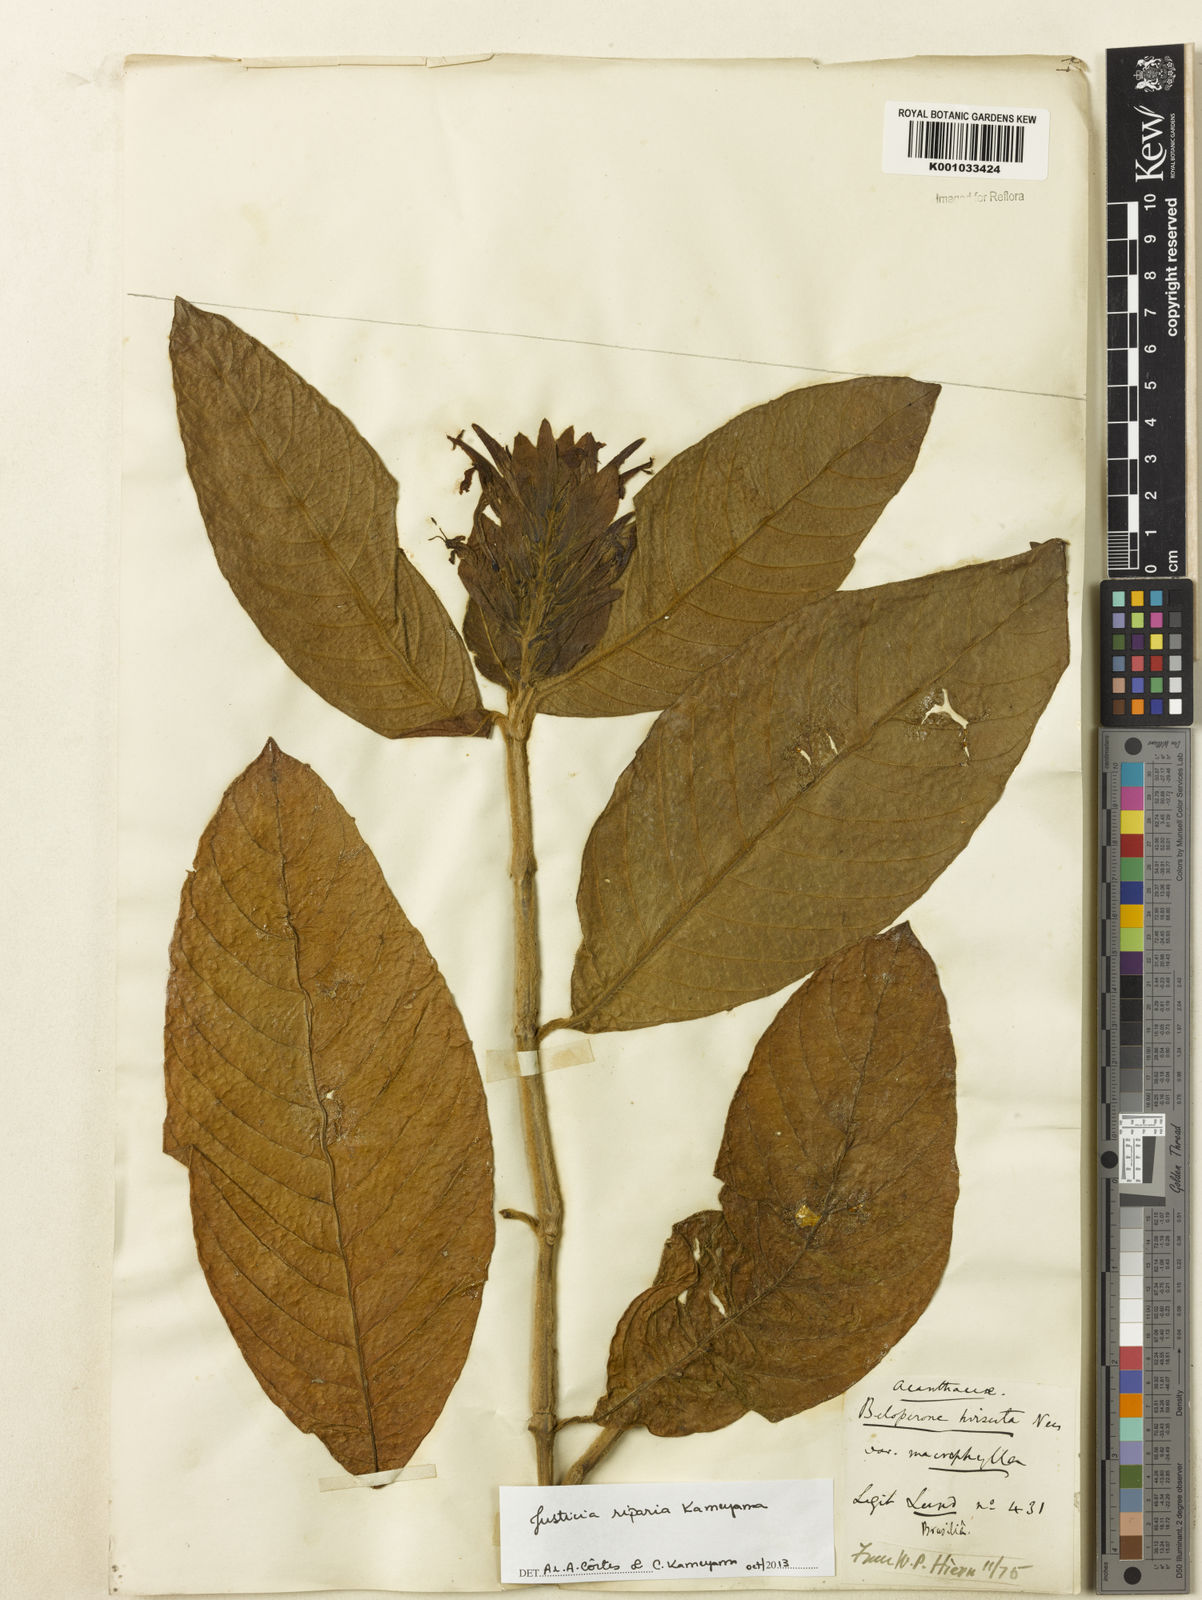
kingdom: Plantae
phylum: Tracheophyta
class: Magnoliopsida
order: Lamiales
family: Acanthaceae
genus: Justicia
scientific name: Justicia riparia
